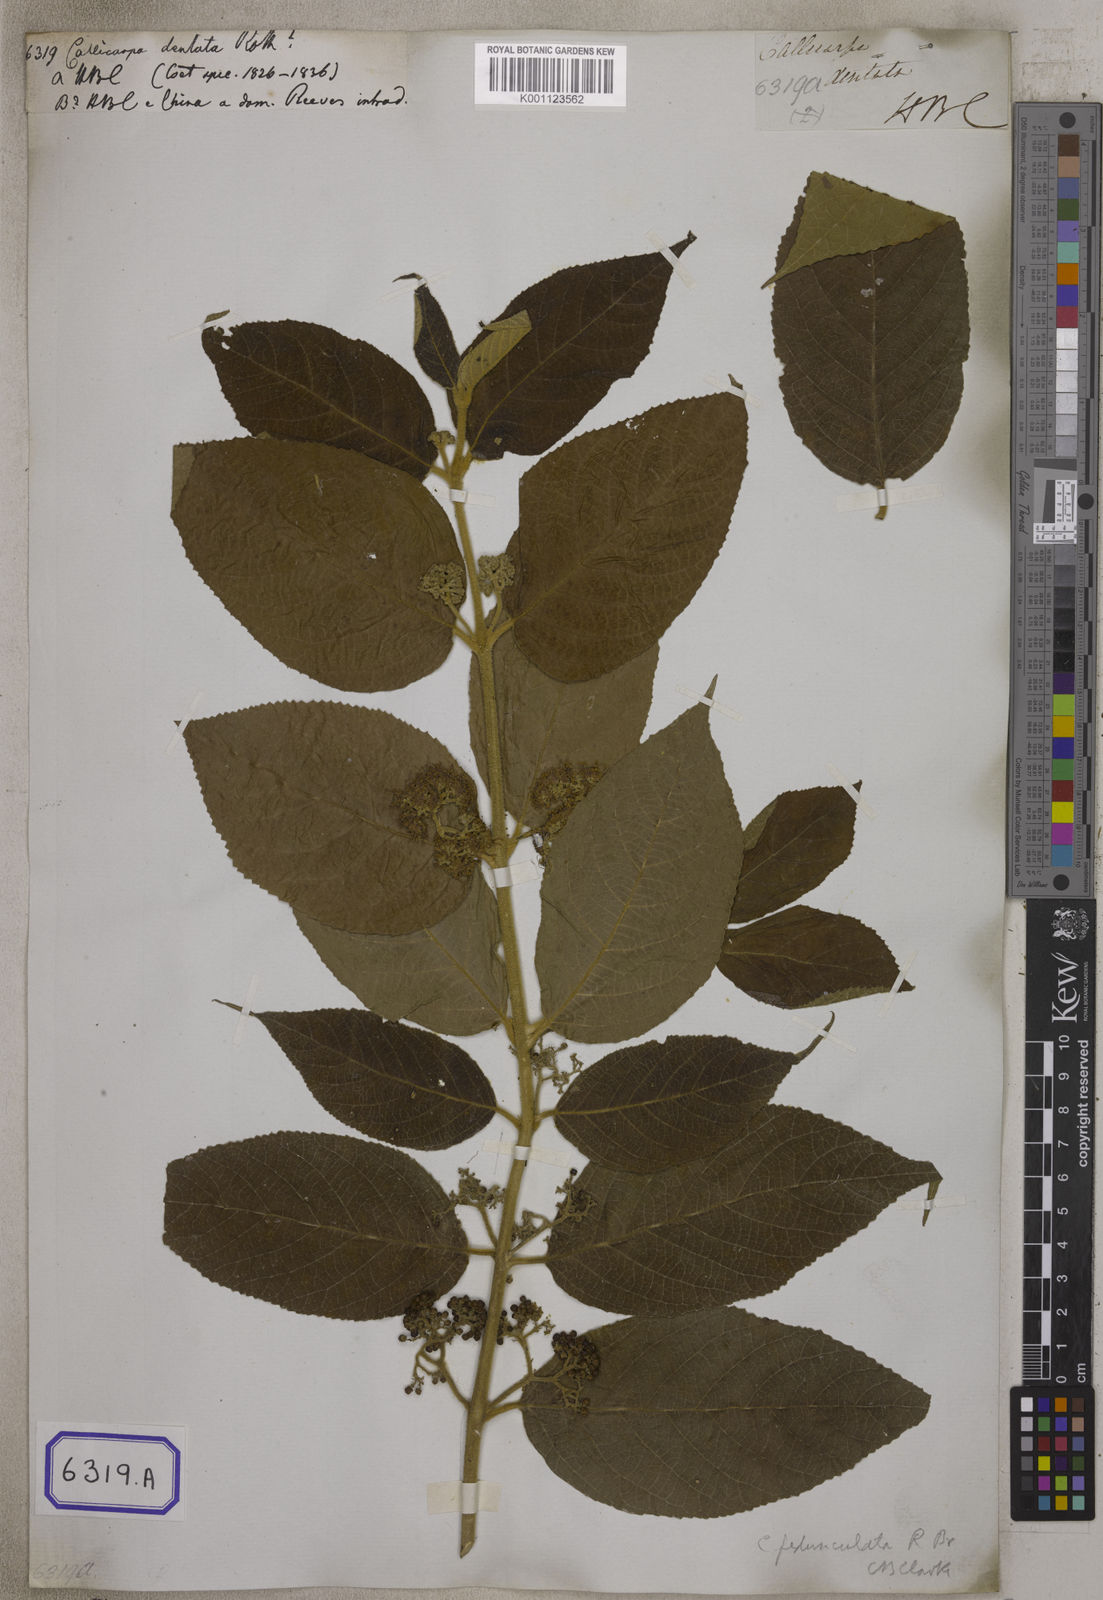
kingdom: Plantae
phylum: Tracheophyta
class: Magnoliopsida
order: Lamiales
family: Lamiaceae
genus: Callicarpa
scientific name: Callicarpa
